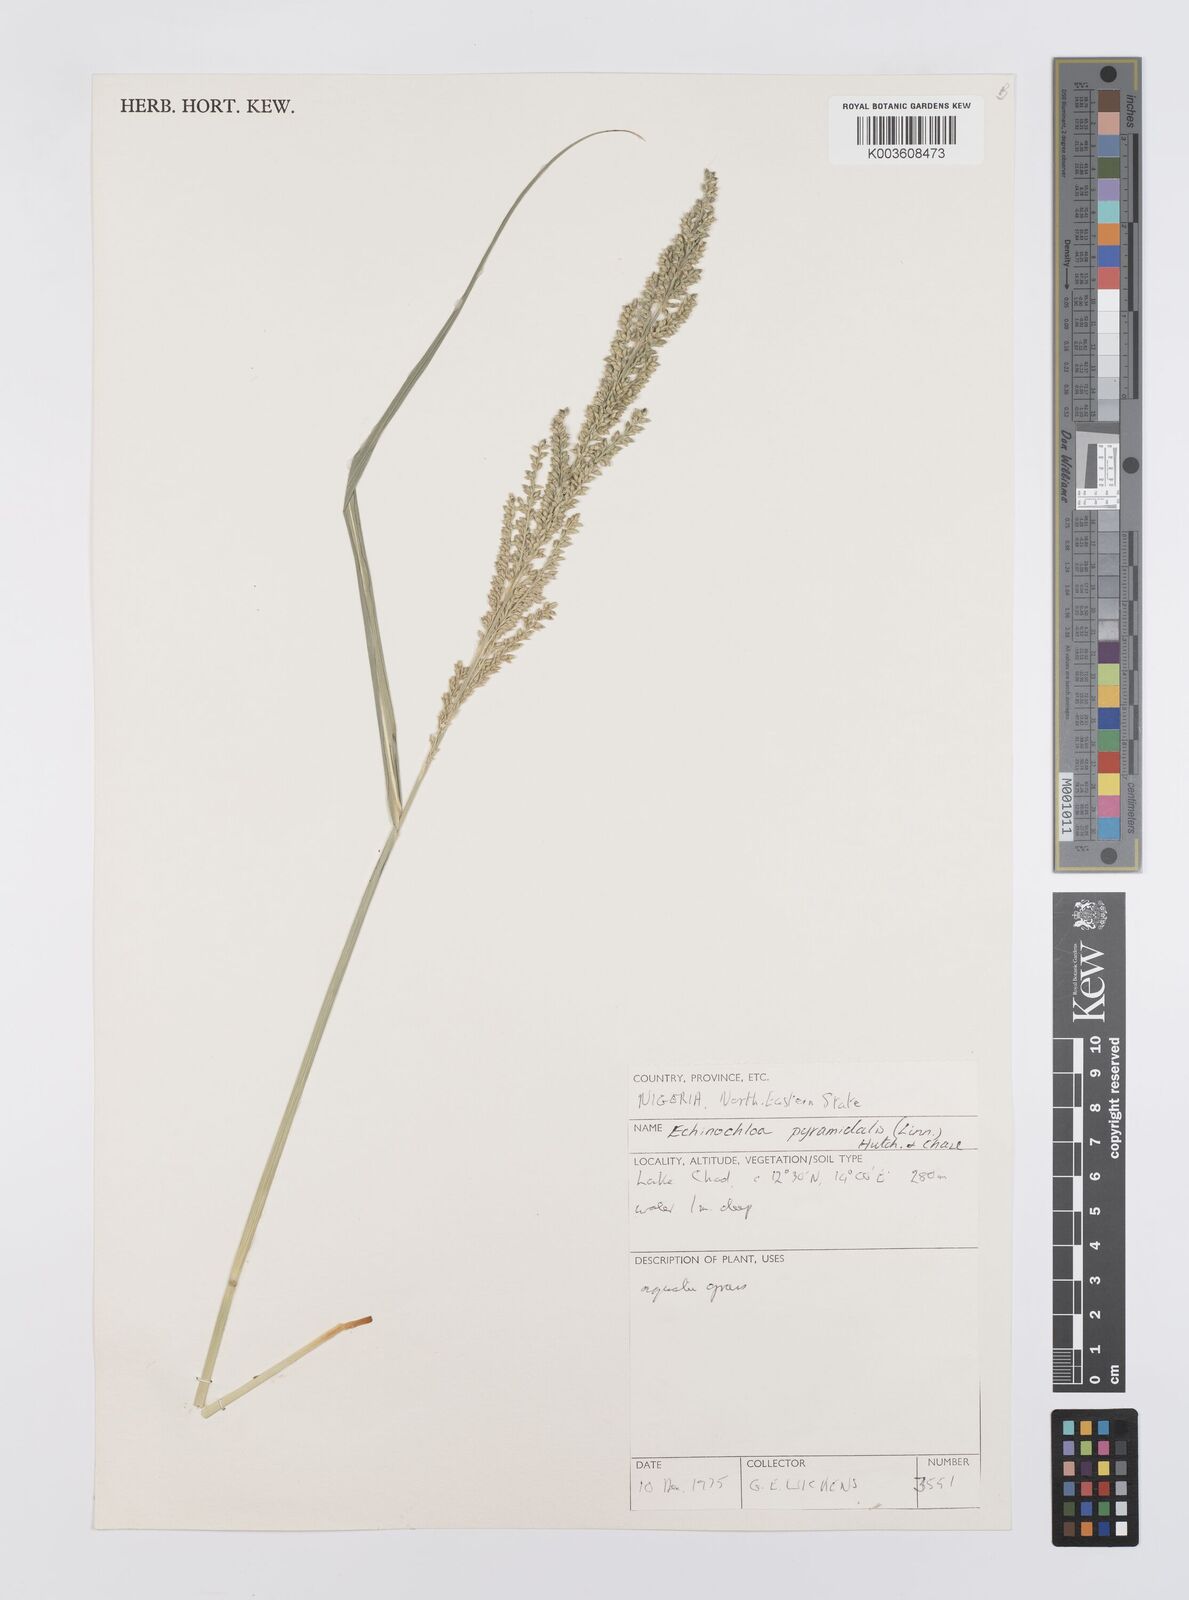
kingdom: Plantae
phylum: Tracheophyta
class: Liliopsida
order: Poales
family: Poaceae
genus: Echinochloa
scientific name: Echinochloa pyramidalis
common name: Antelope grass
